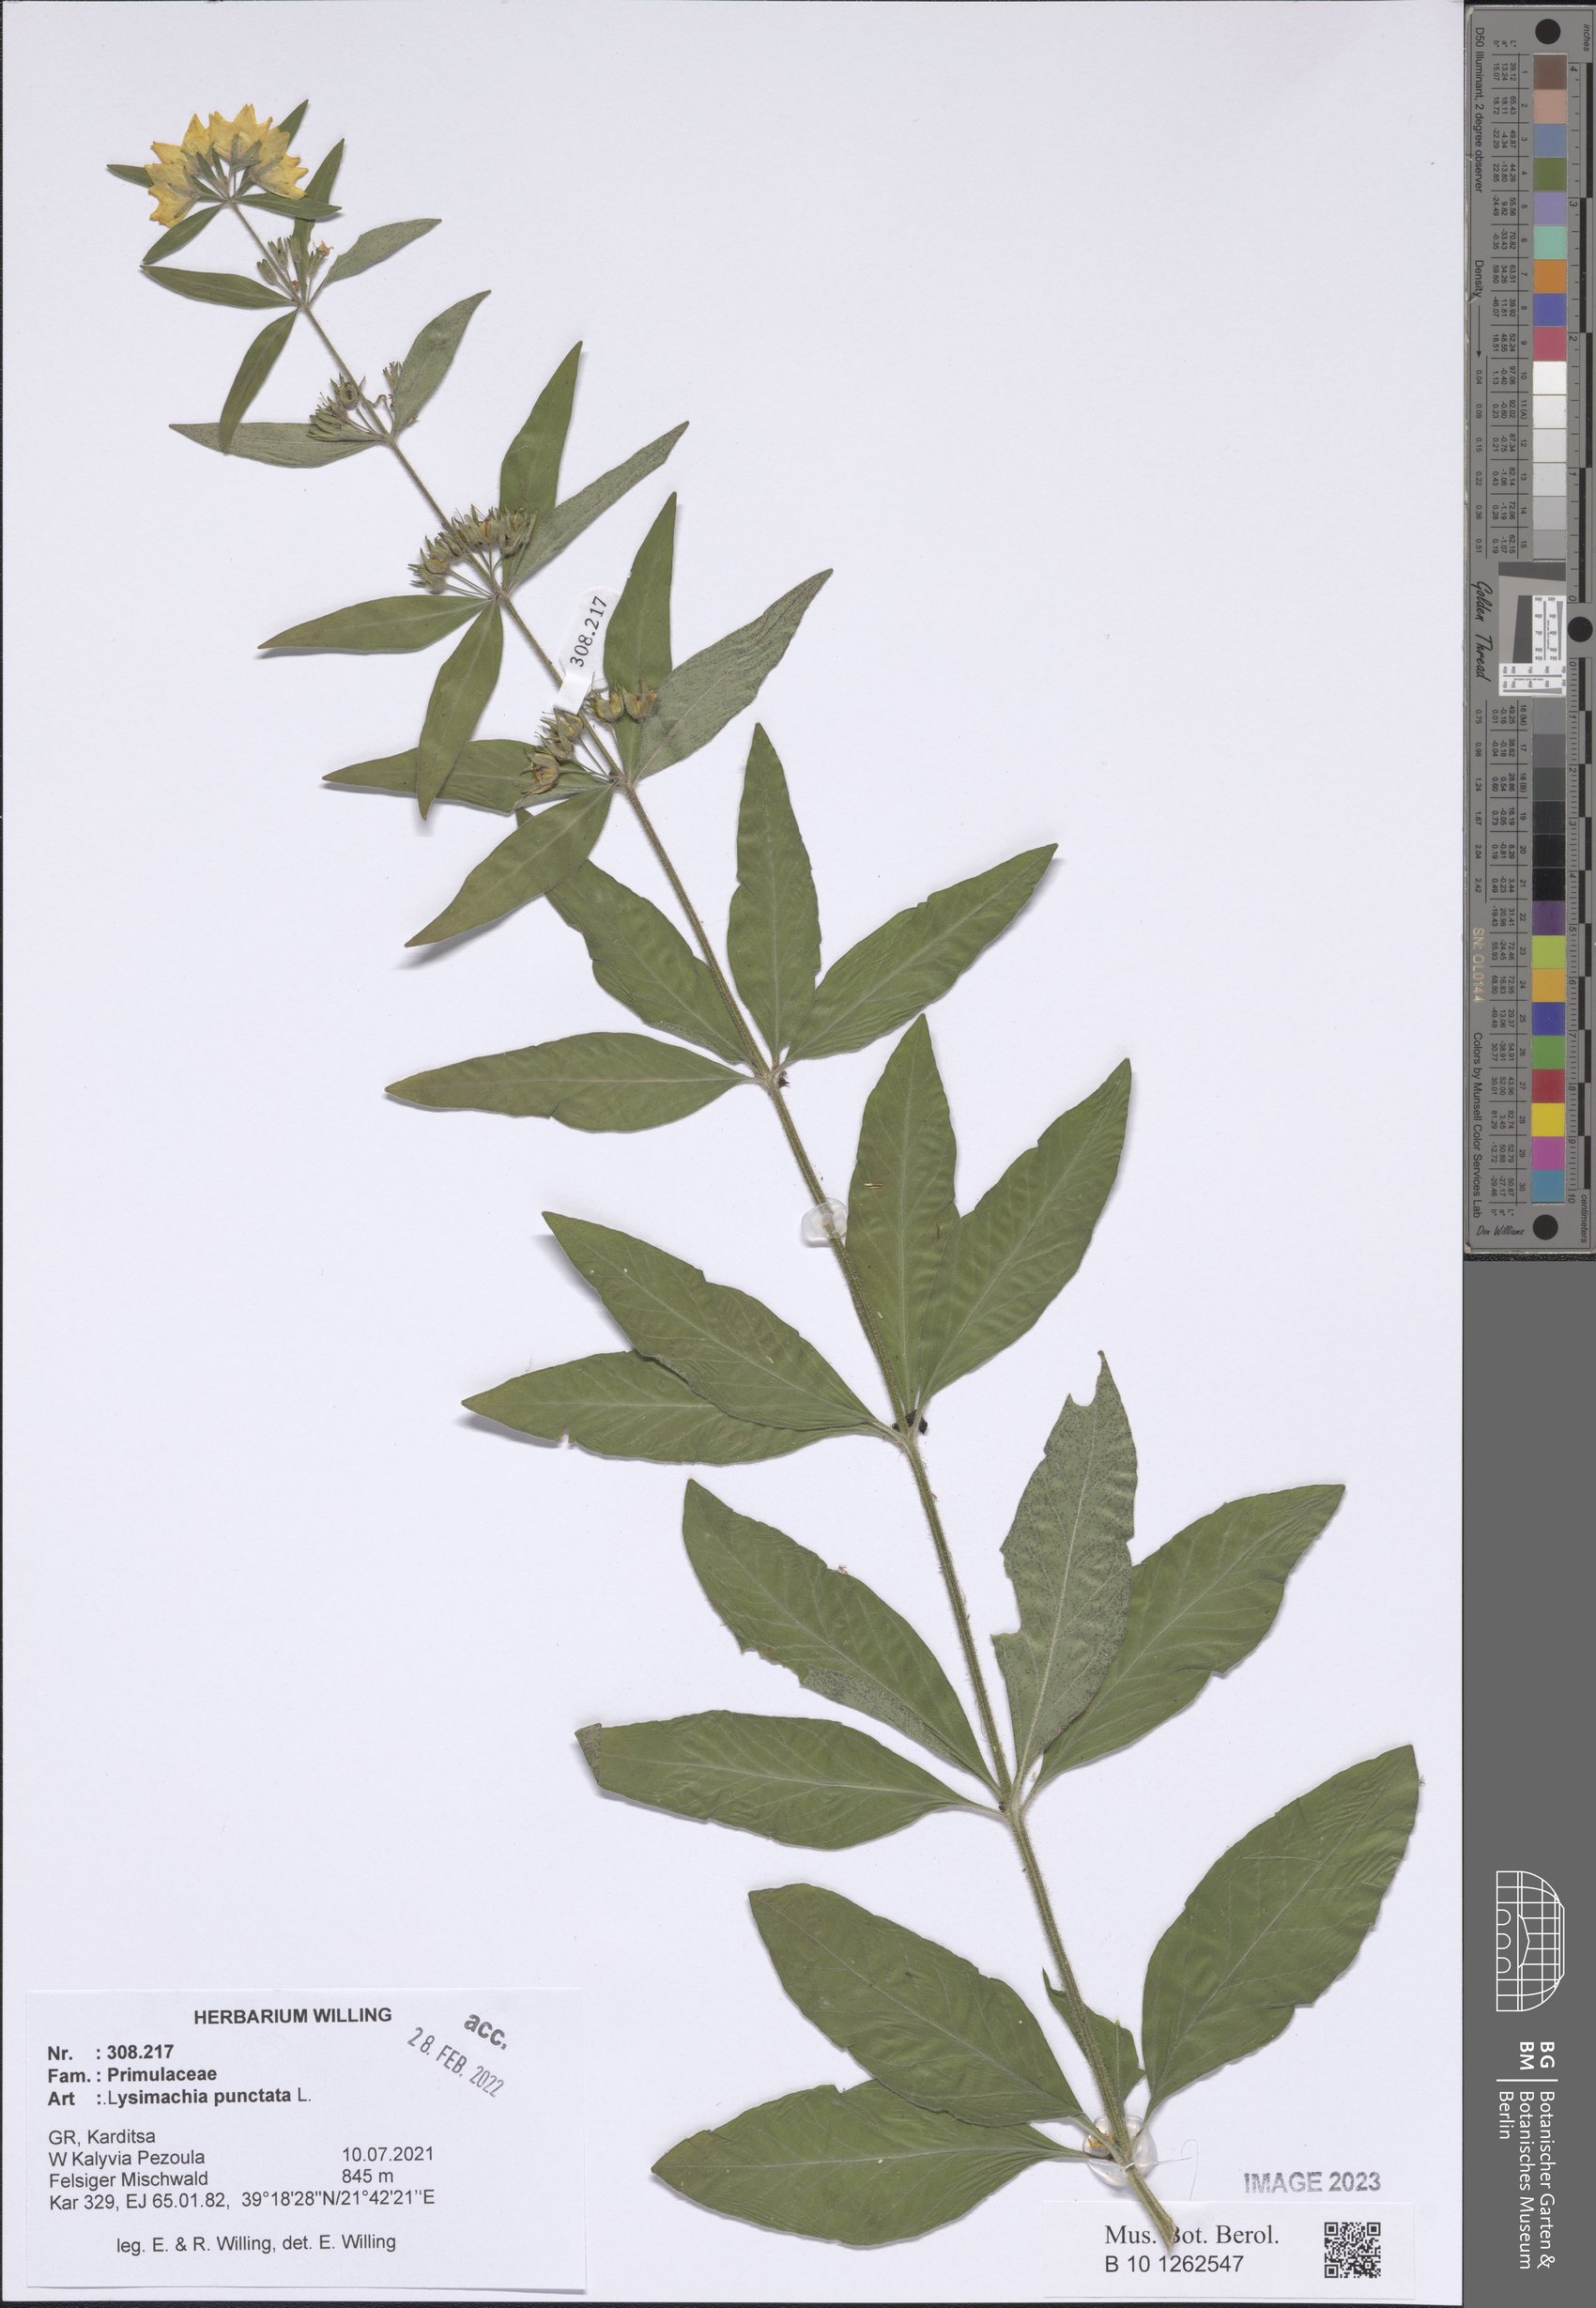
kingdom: Plantae
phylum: Tracheophyta
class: Magnoliopsida
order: Ericales
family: Primulaceae
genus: Lysimachia
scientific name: Lysimachia punctata
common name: Dotted loosestrife
